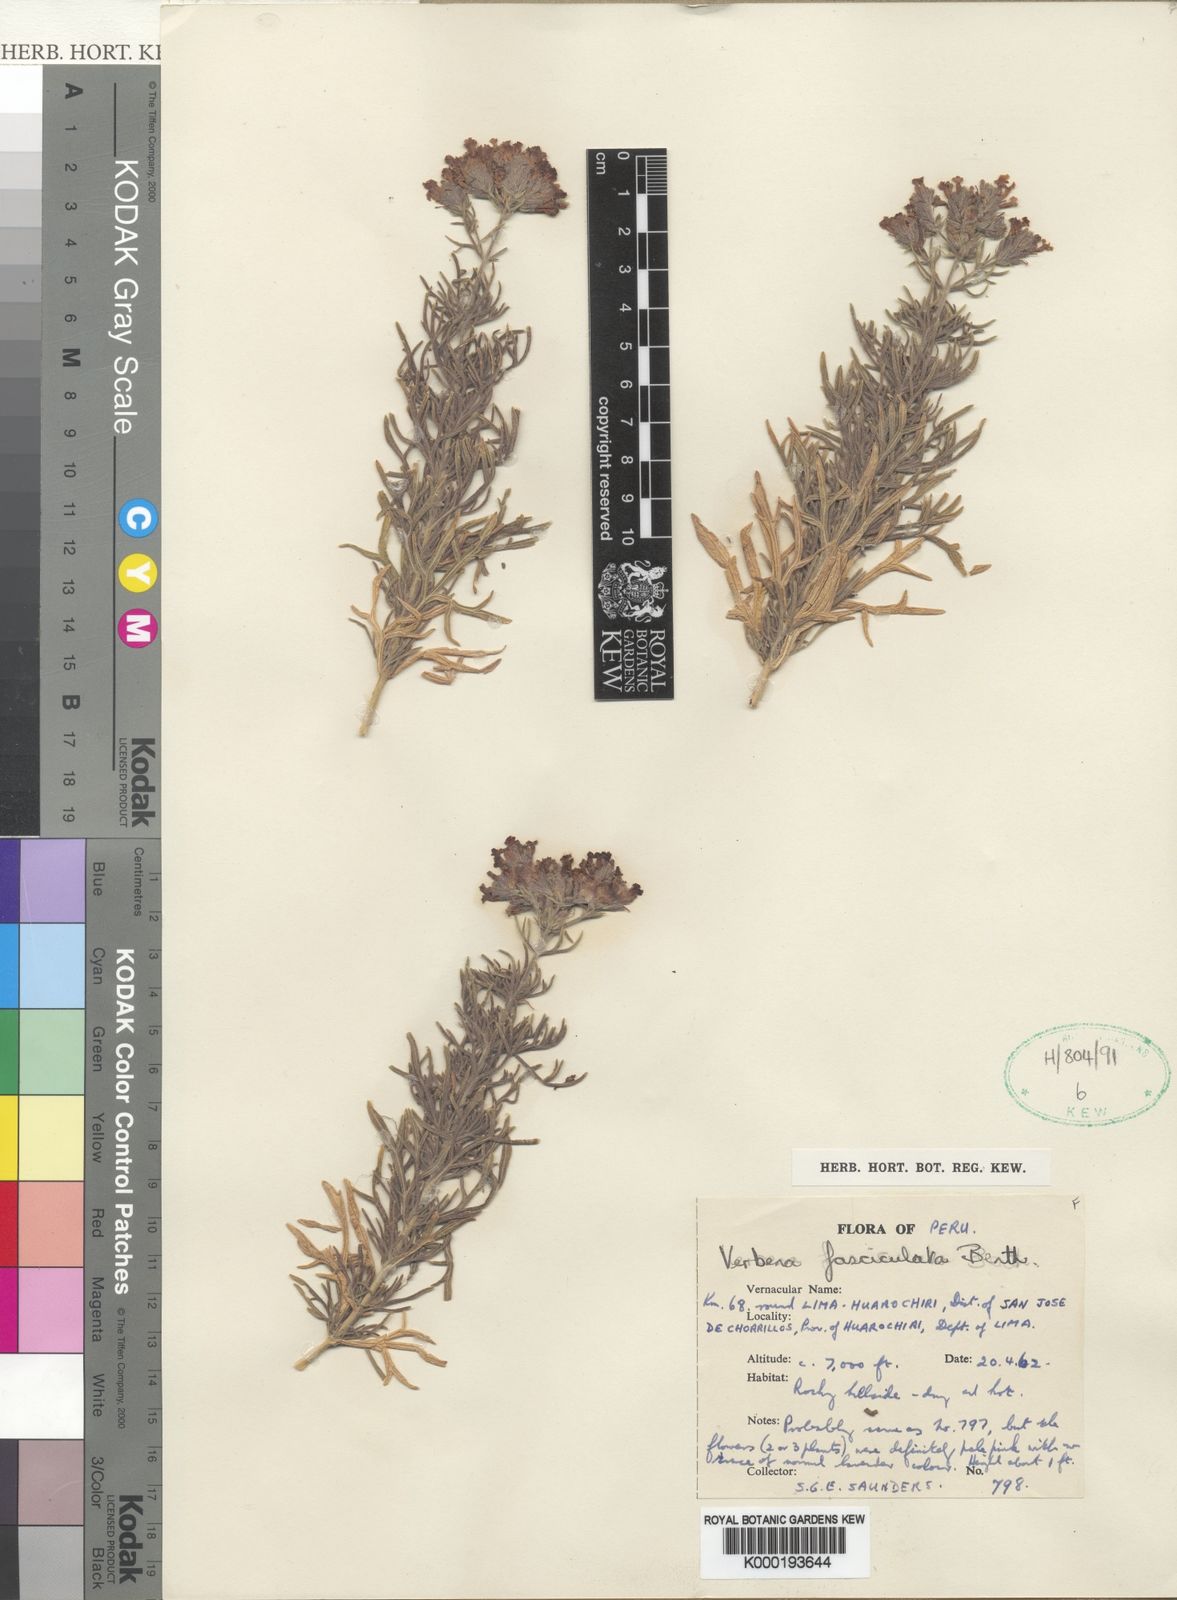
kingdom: Plantae
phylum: Tracheophyta
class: Magnoliopsida
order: Lamiales
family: Verbenaceae
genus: Junellia
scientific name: Junellia fasciculata
